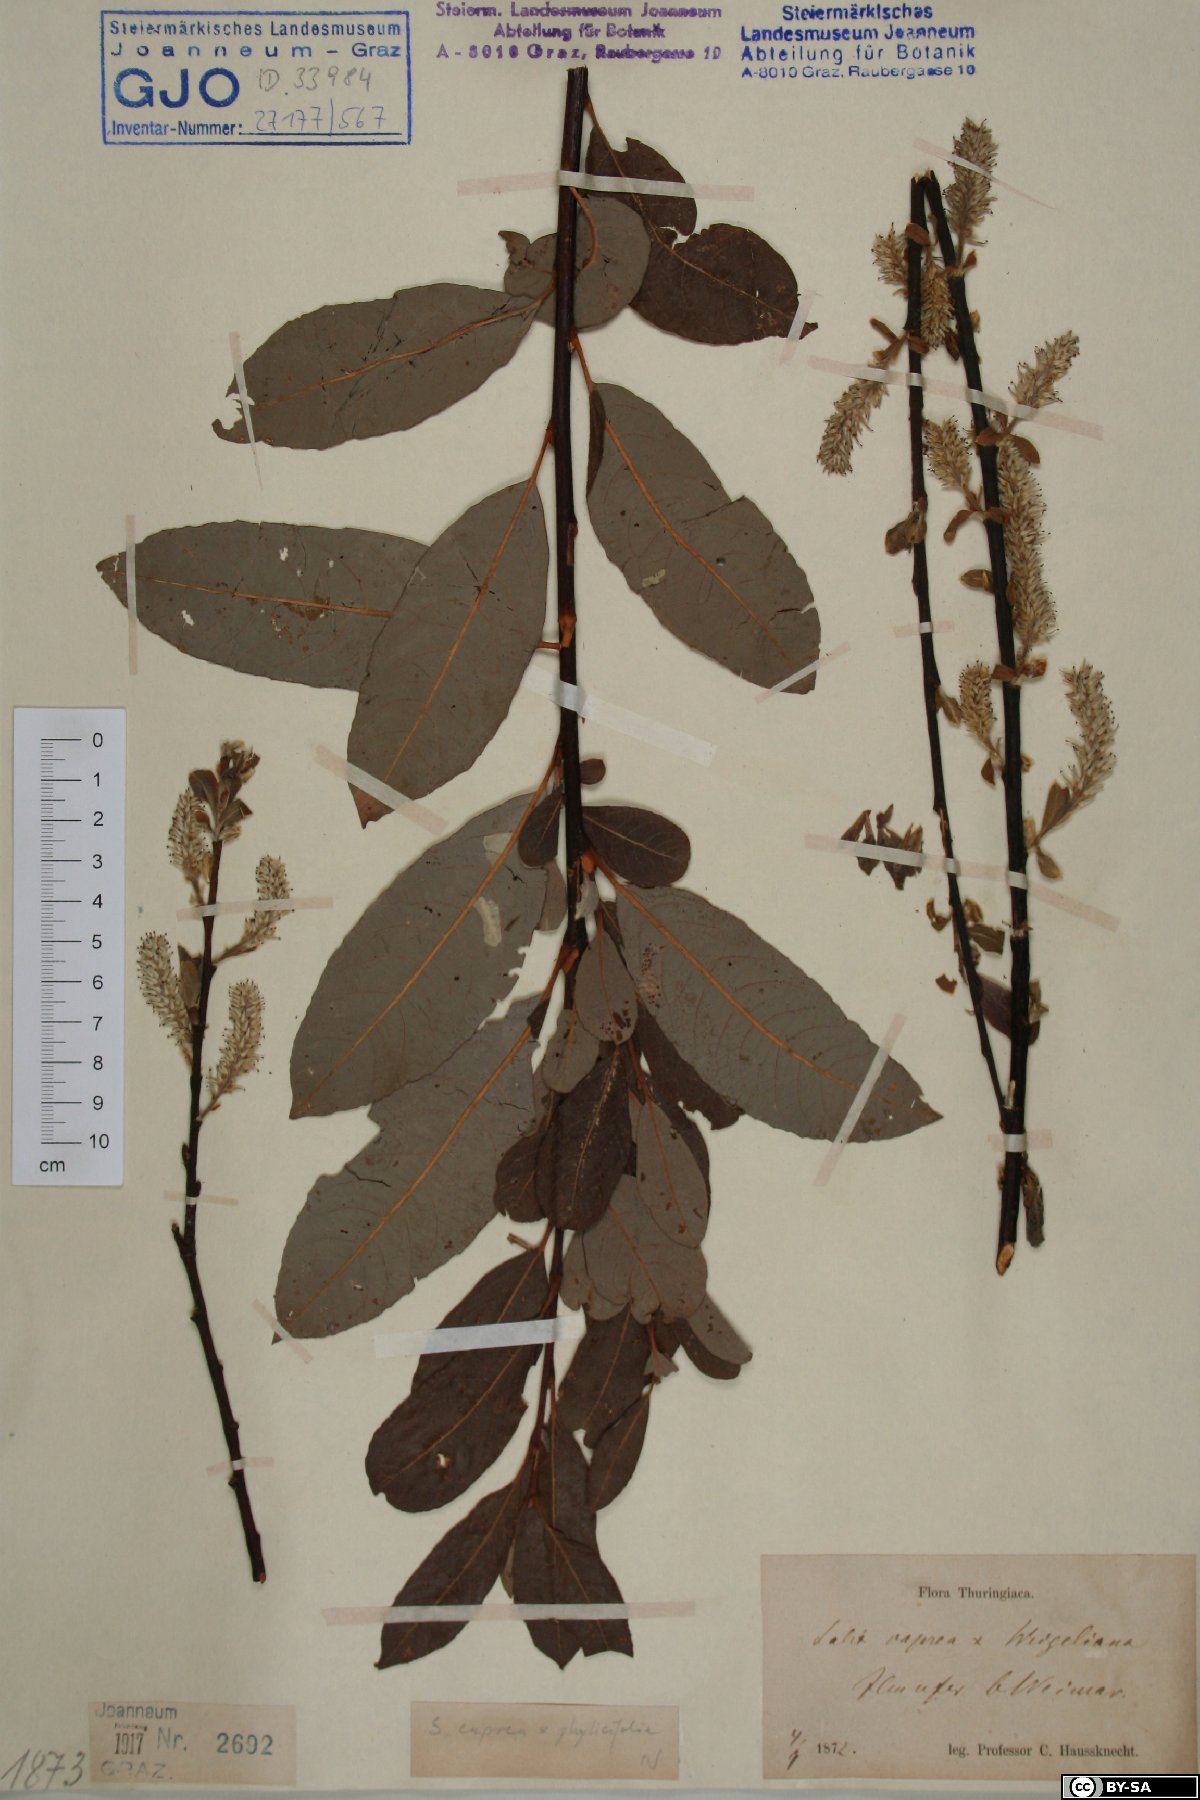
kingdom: Plantae
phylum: Tracheophyta
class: Magnoliopsida
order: Malpighiales
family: Salicaceae
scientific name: Salicaceae
